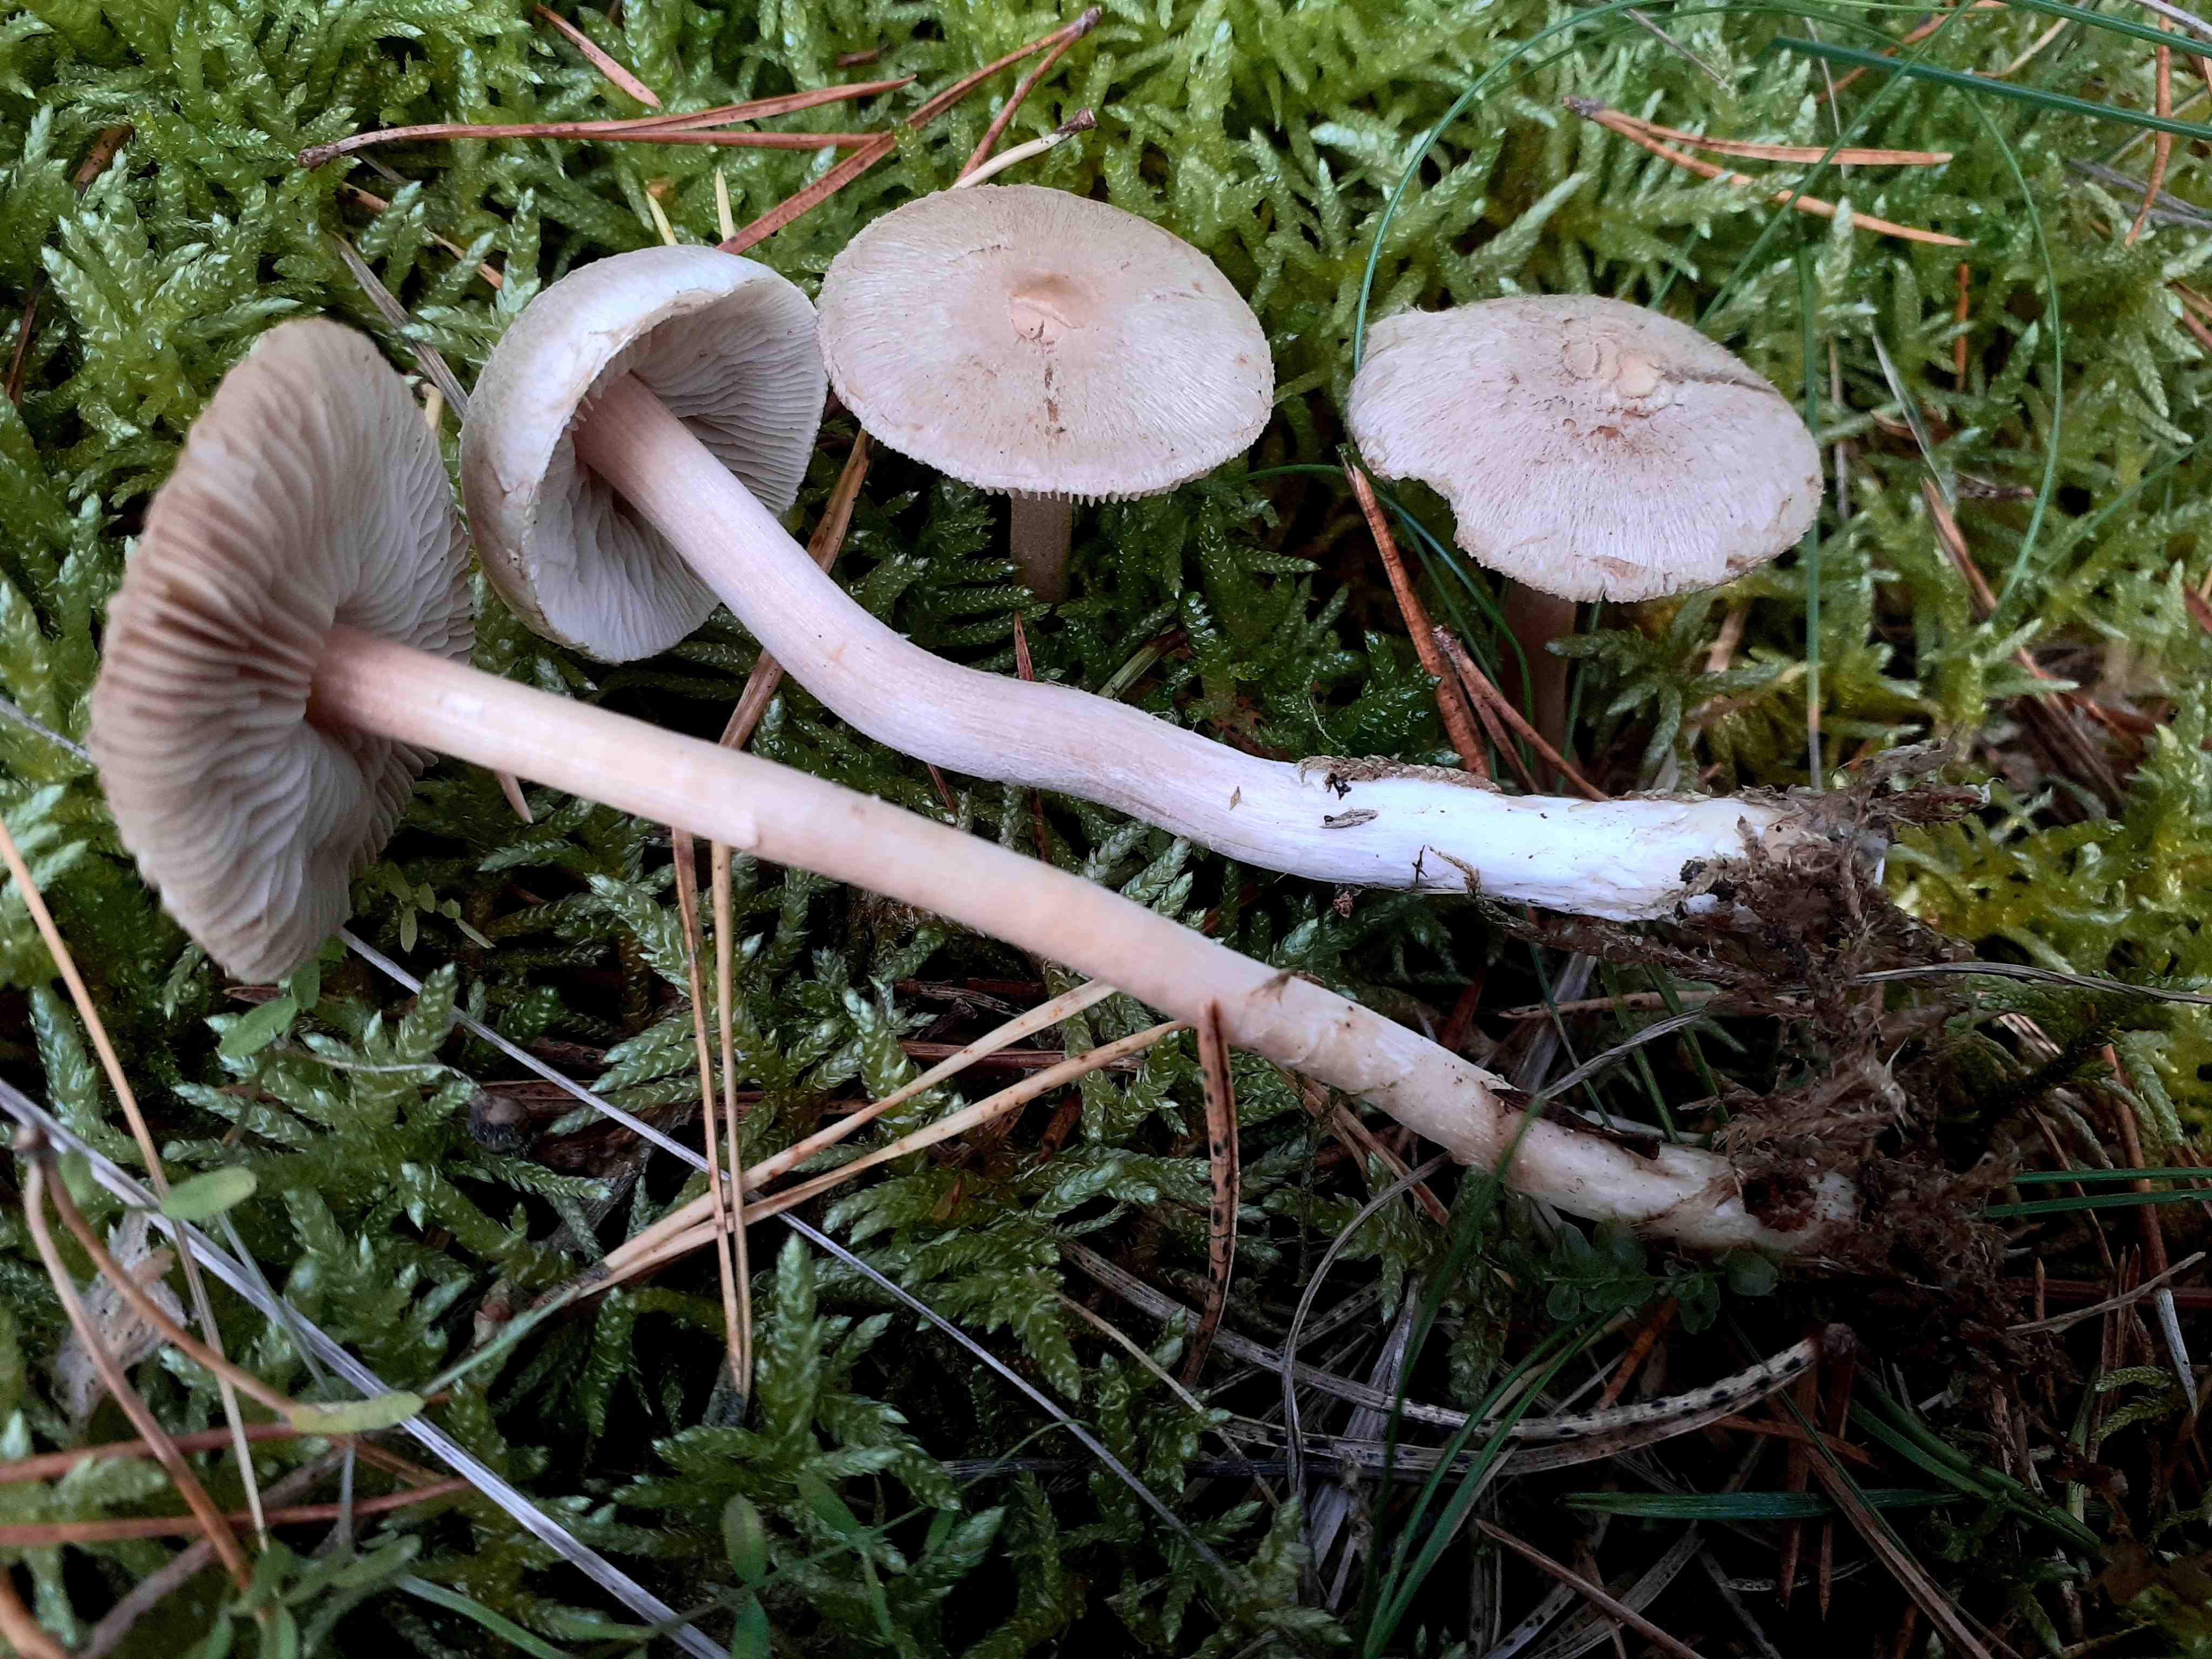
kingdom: Fungi
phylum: Basidiomycota
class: Agaricomycetes
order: Agaricales
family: Inocybaceae
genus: Inocybe
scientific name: Inocybe sindonia
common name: bleg trævlhat
